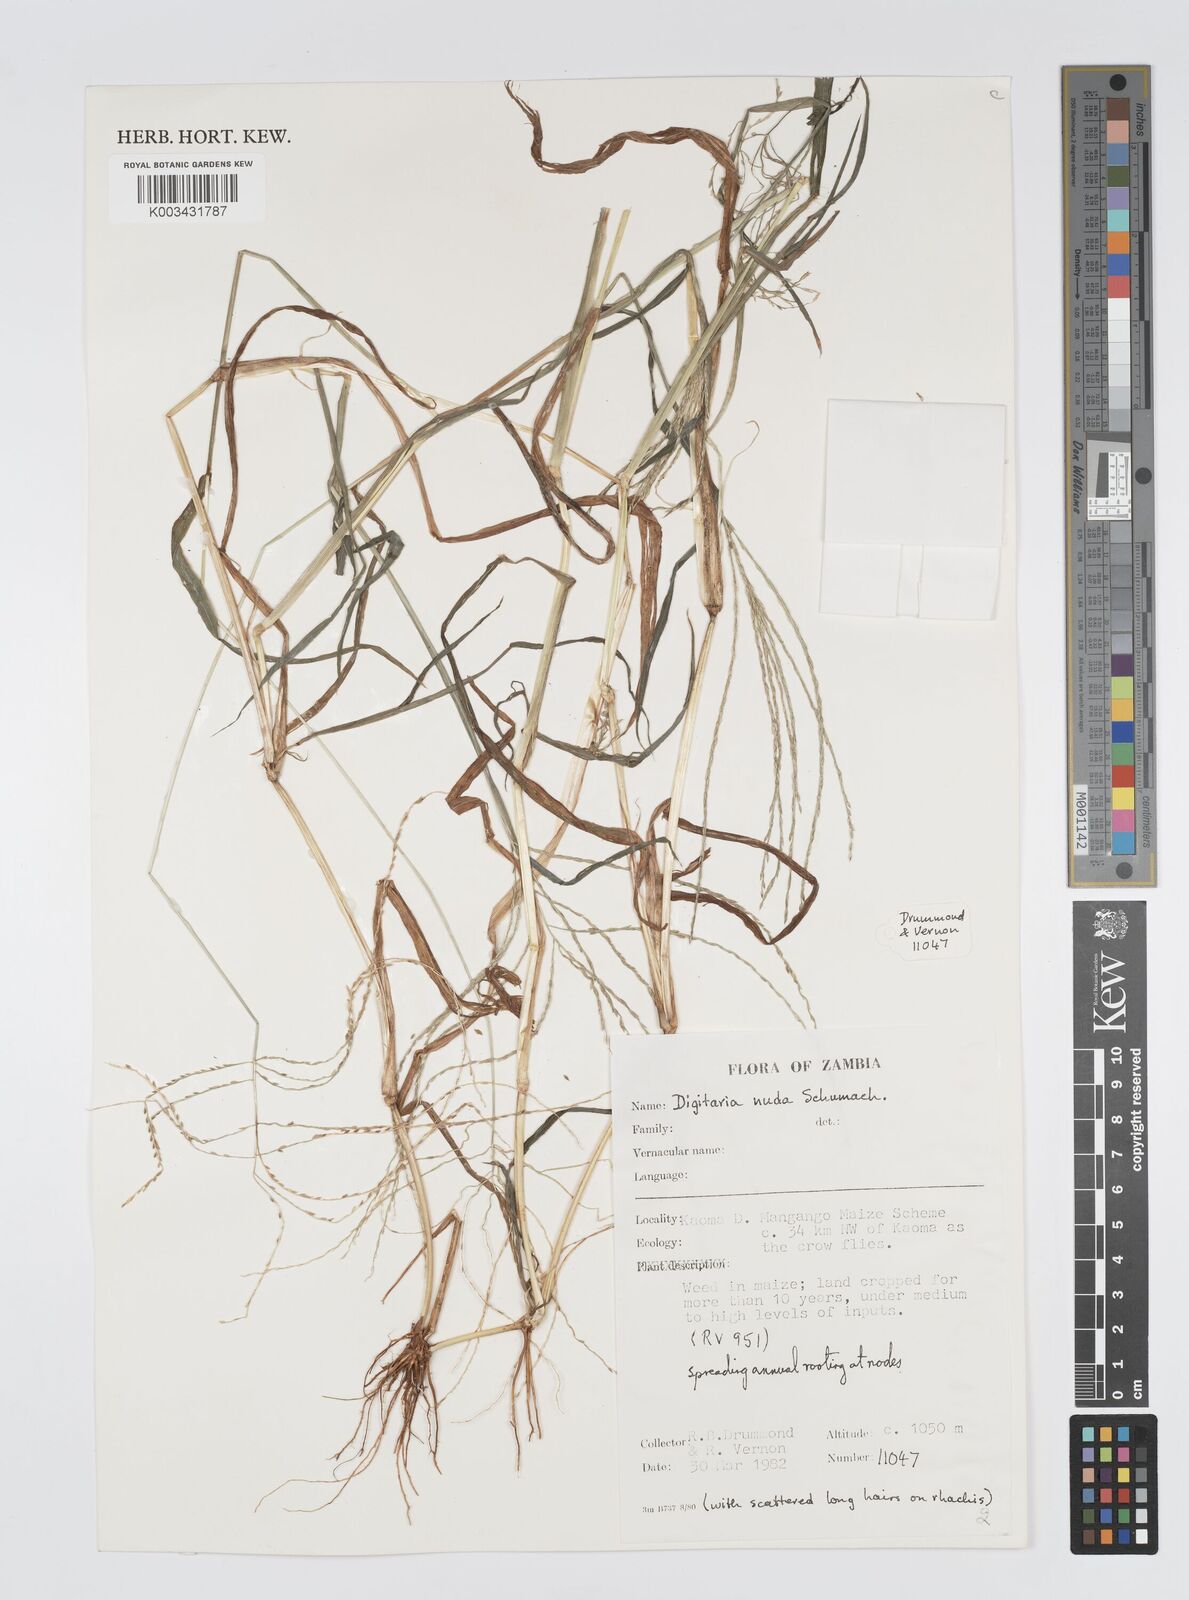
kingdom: Plantae
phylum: Tracheophyta
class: Liliopsida
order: Poales
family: Poaceae
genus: Digitaria
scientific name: Digitaria nuda
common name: Naked crabgrass
